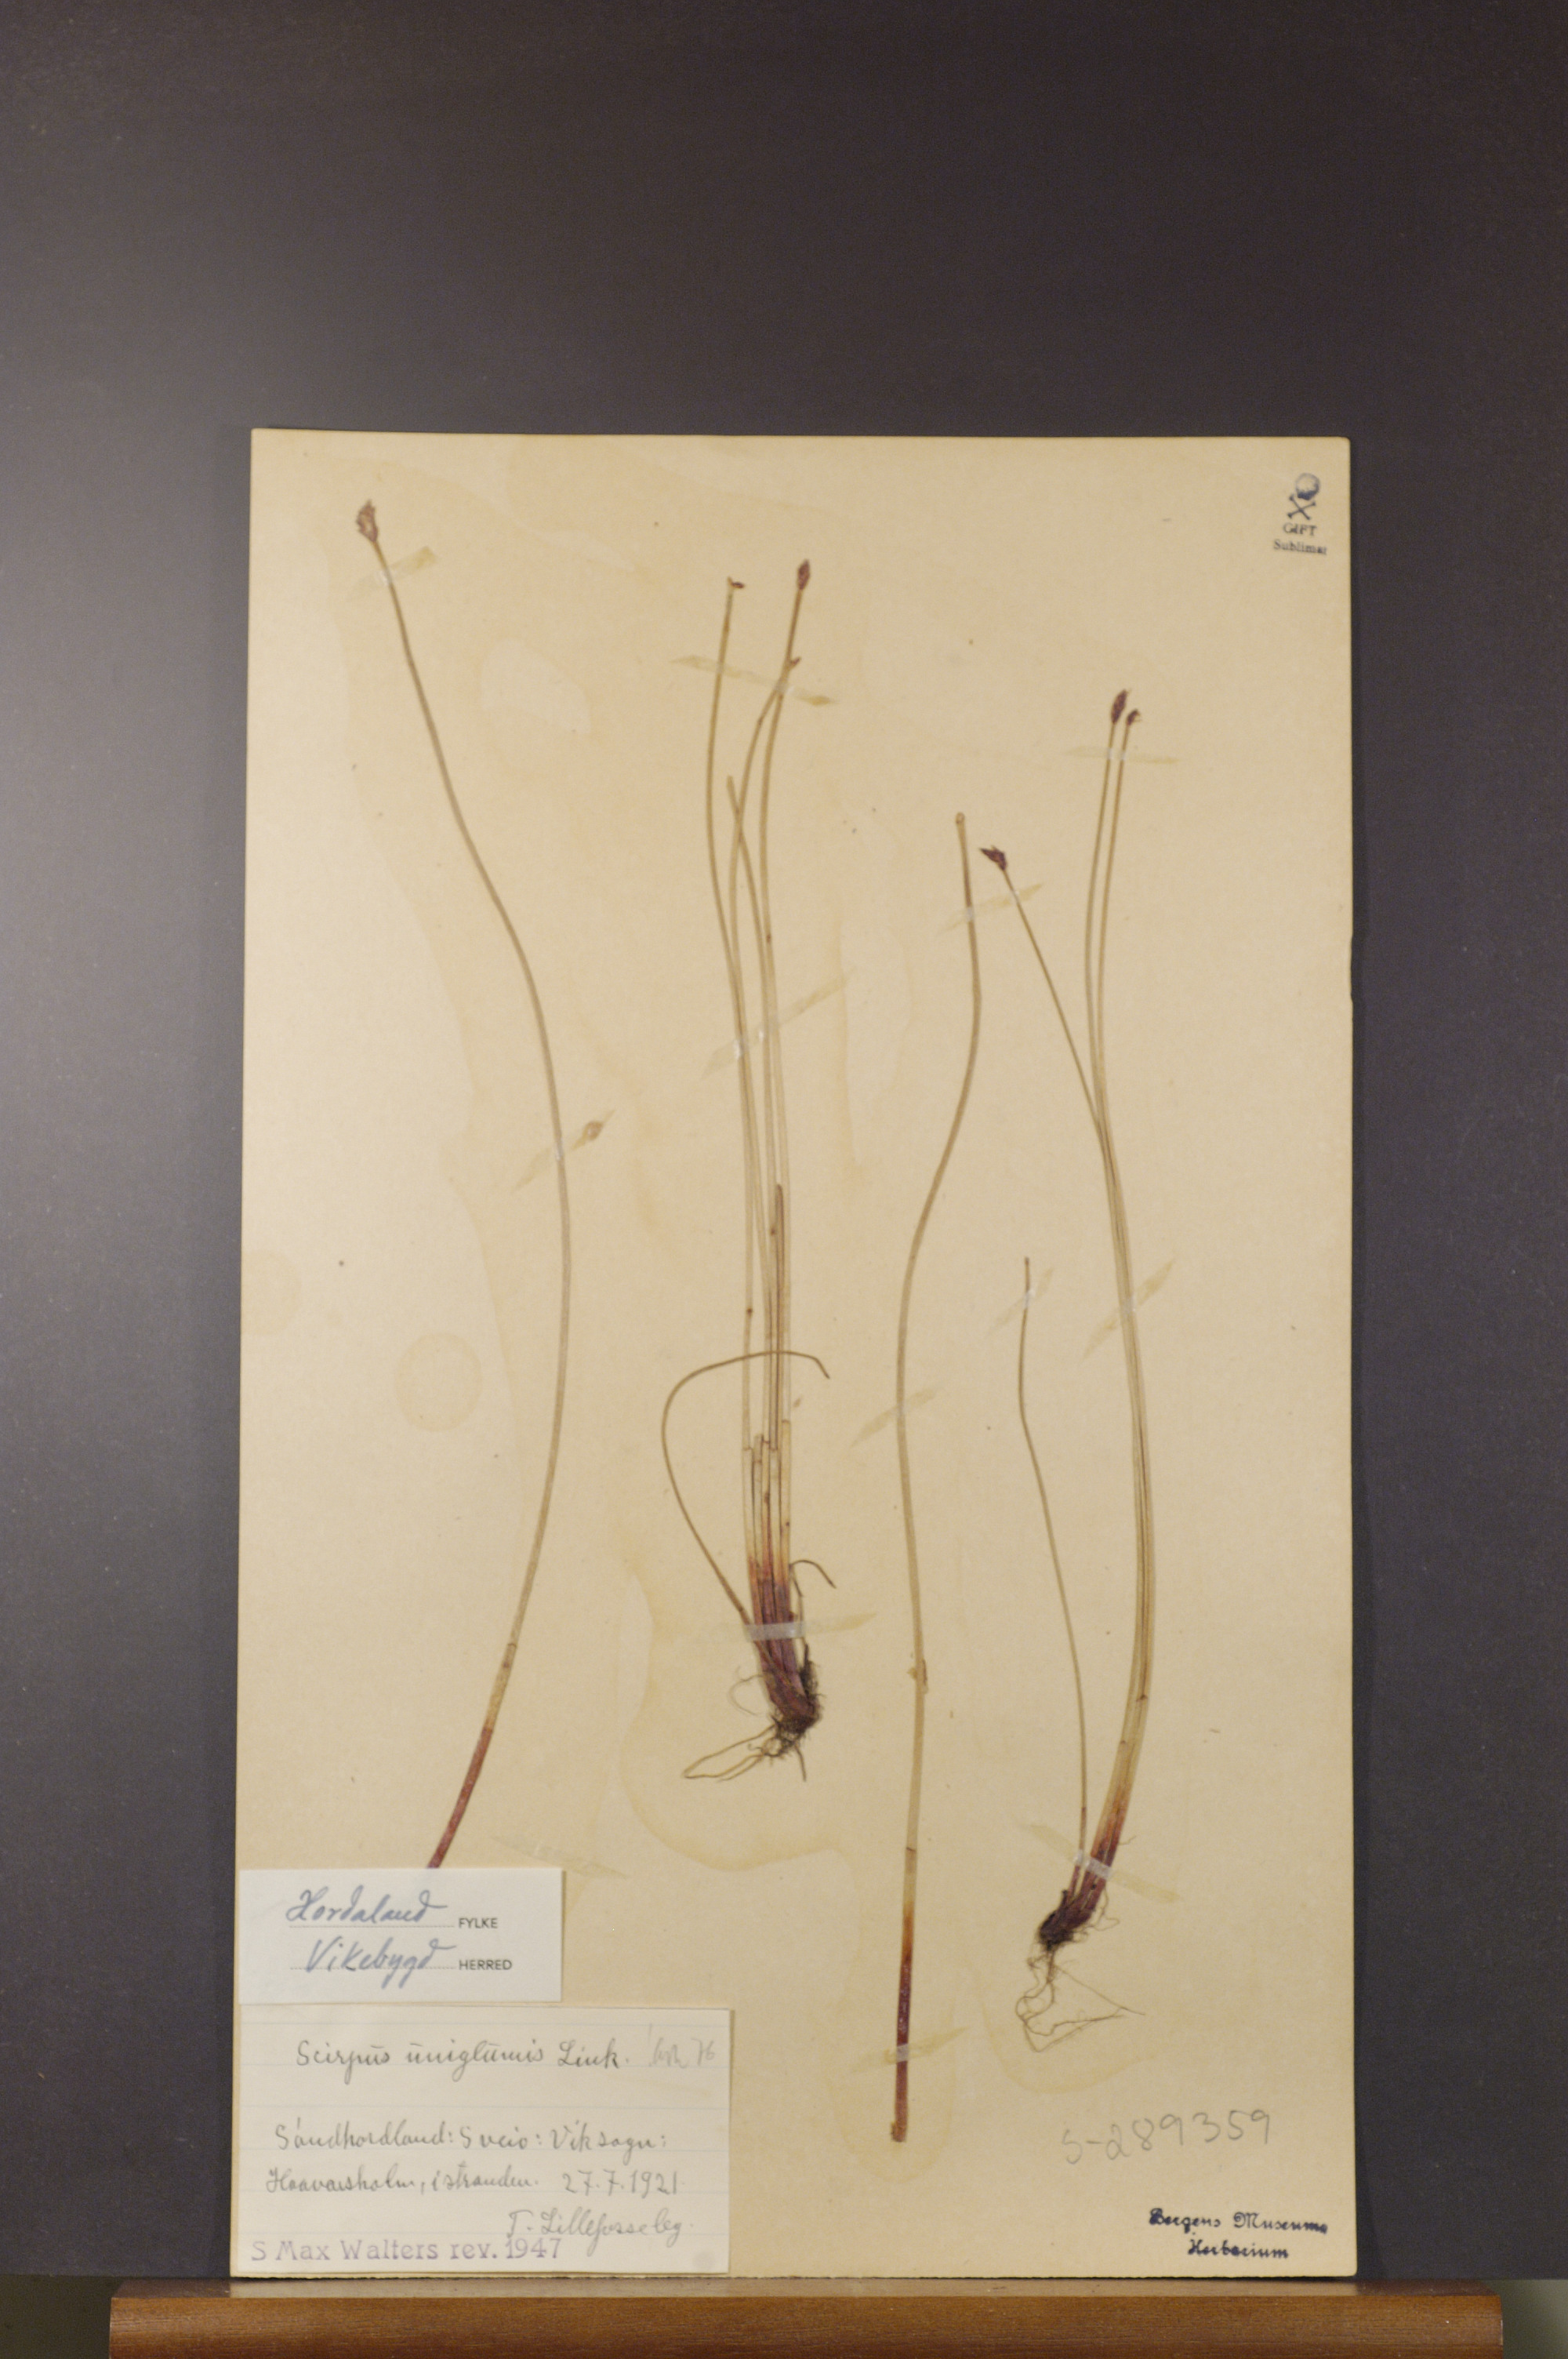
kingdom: Plantae
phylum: Tracheophyta
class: Liliopsida
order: Poales
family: Cyperaceae
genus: Eleocharis
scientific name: Eleocharis uniglumis
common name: Slender spike-rush
